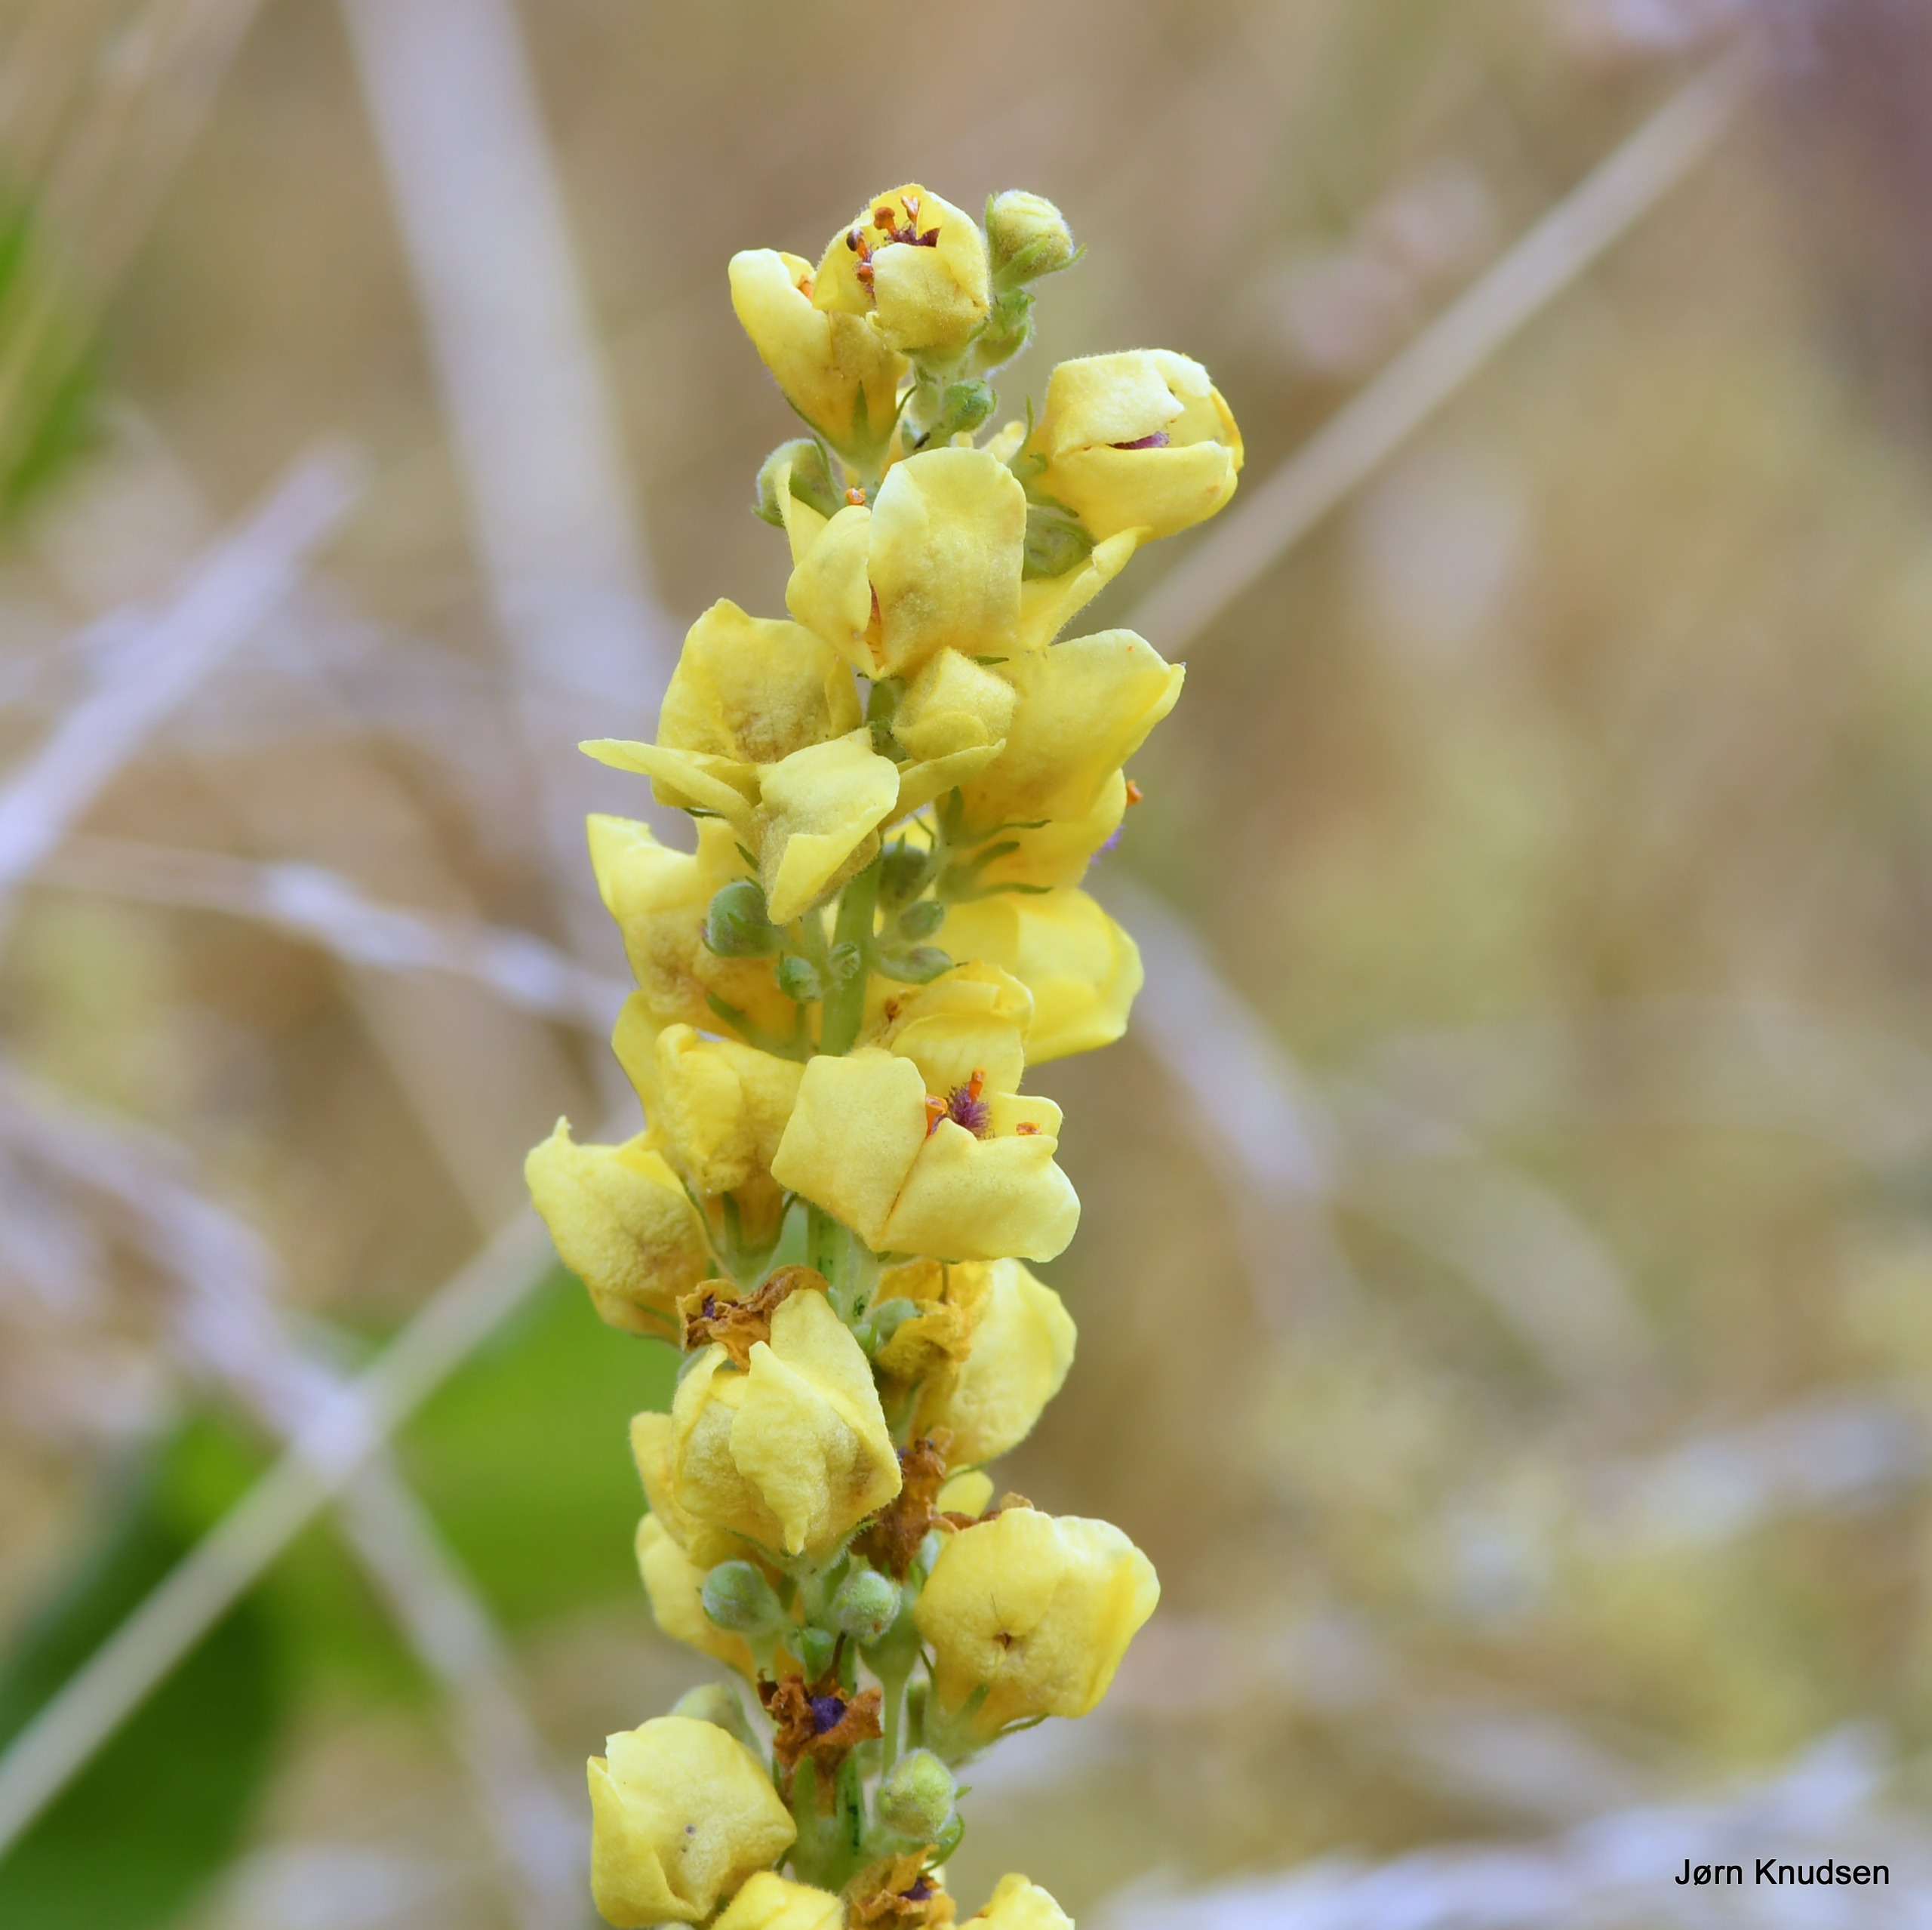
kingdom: Plantae
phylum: Tracheophyta
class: Magnoliopsida
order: Lamiales
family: Scrophulariaceae
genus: Verbascum
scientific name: Verbascum nigrum
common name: Mørk kongelys
